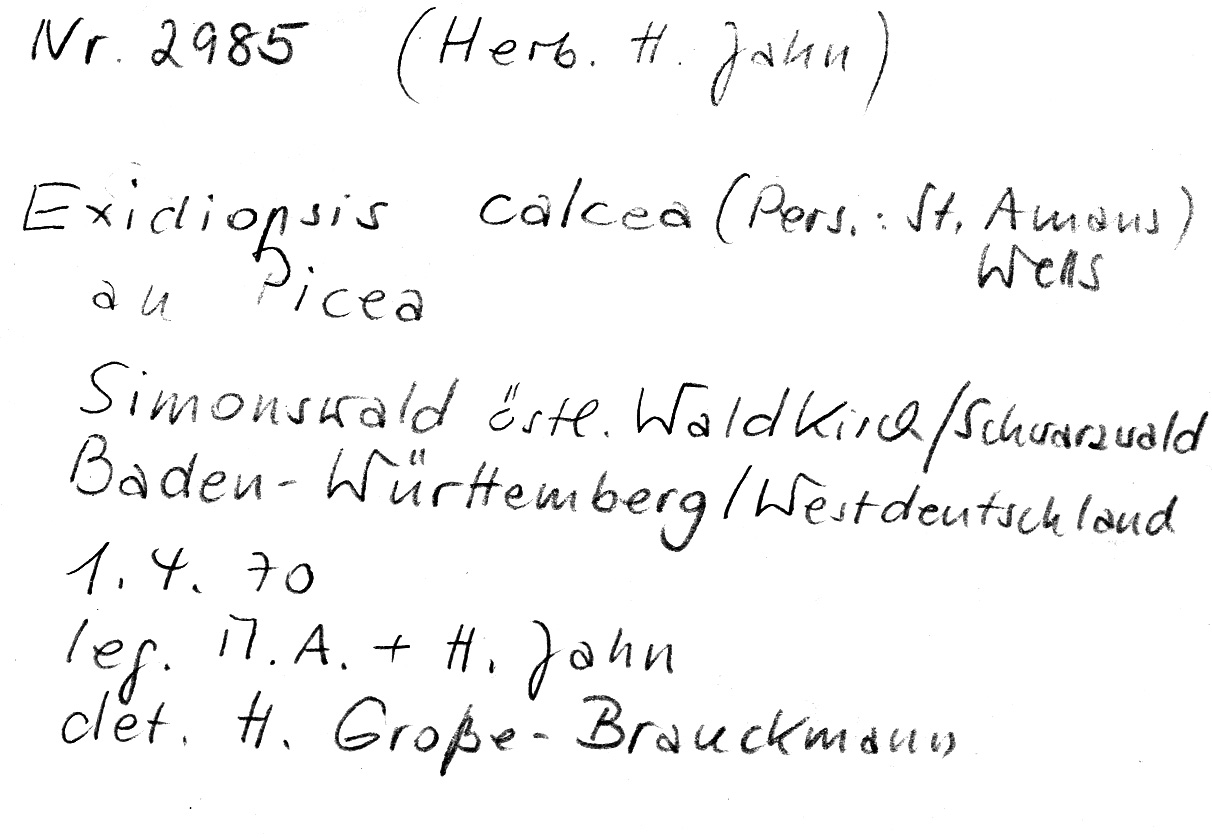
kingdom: Plantae
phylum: Tracheophyta
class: Pinopsida
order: Pinales
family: Pinaceae
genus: Picea
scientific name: Picea
